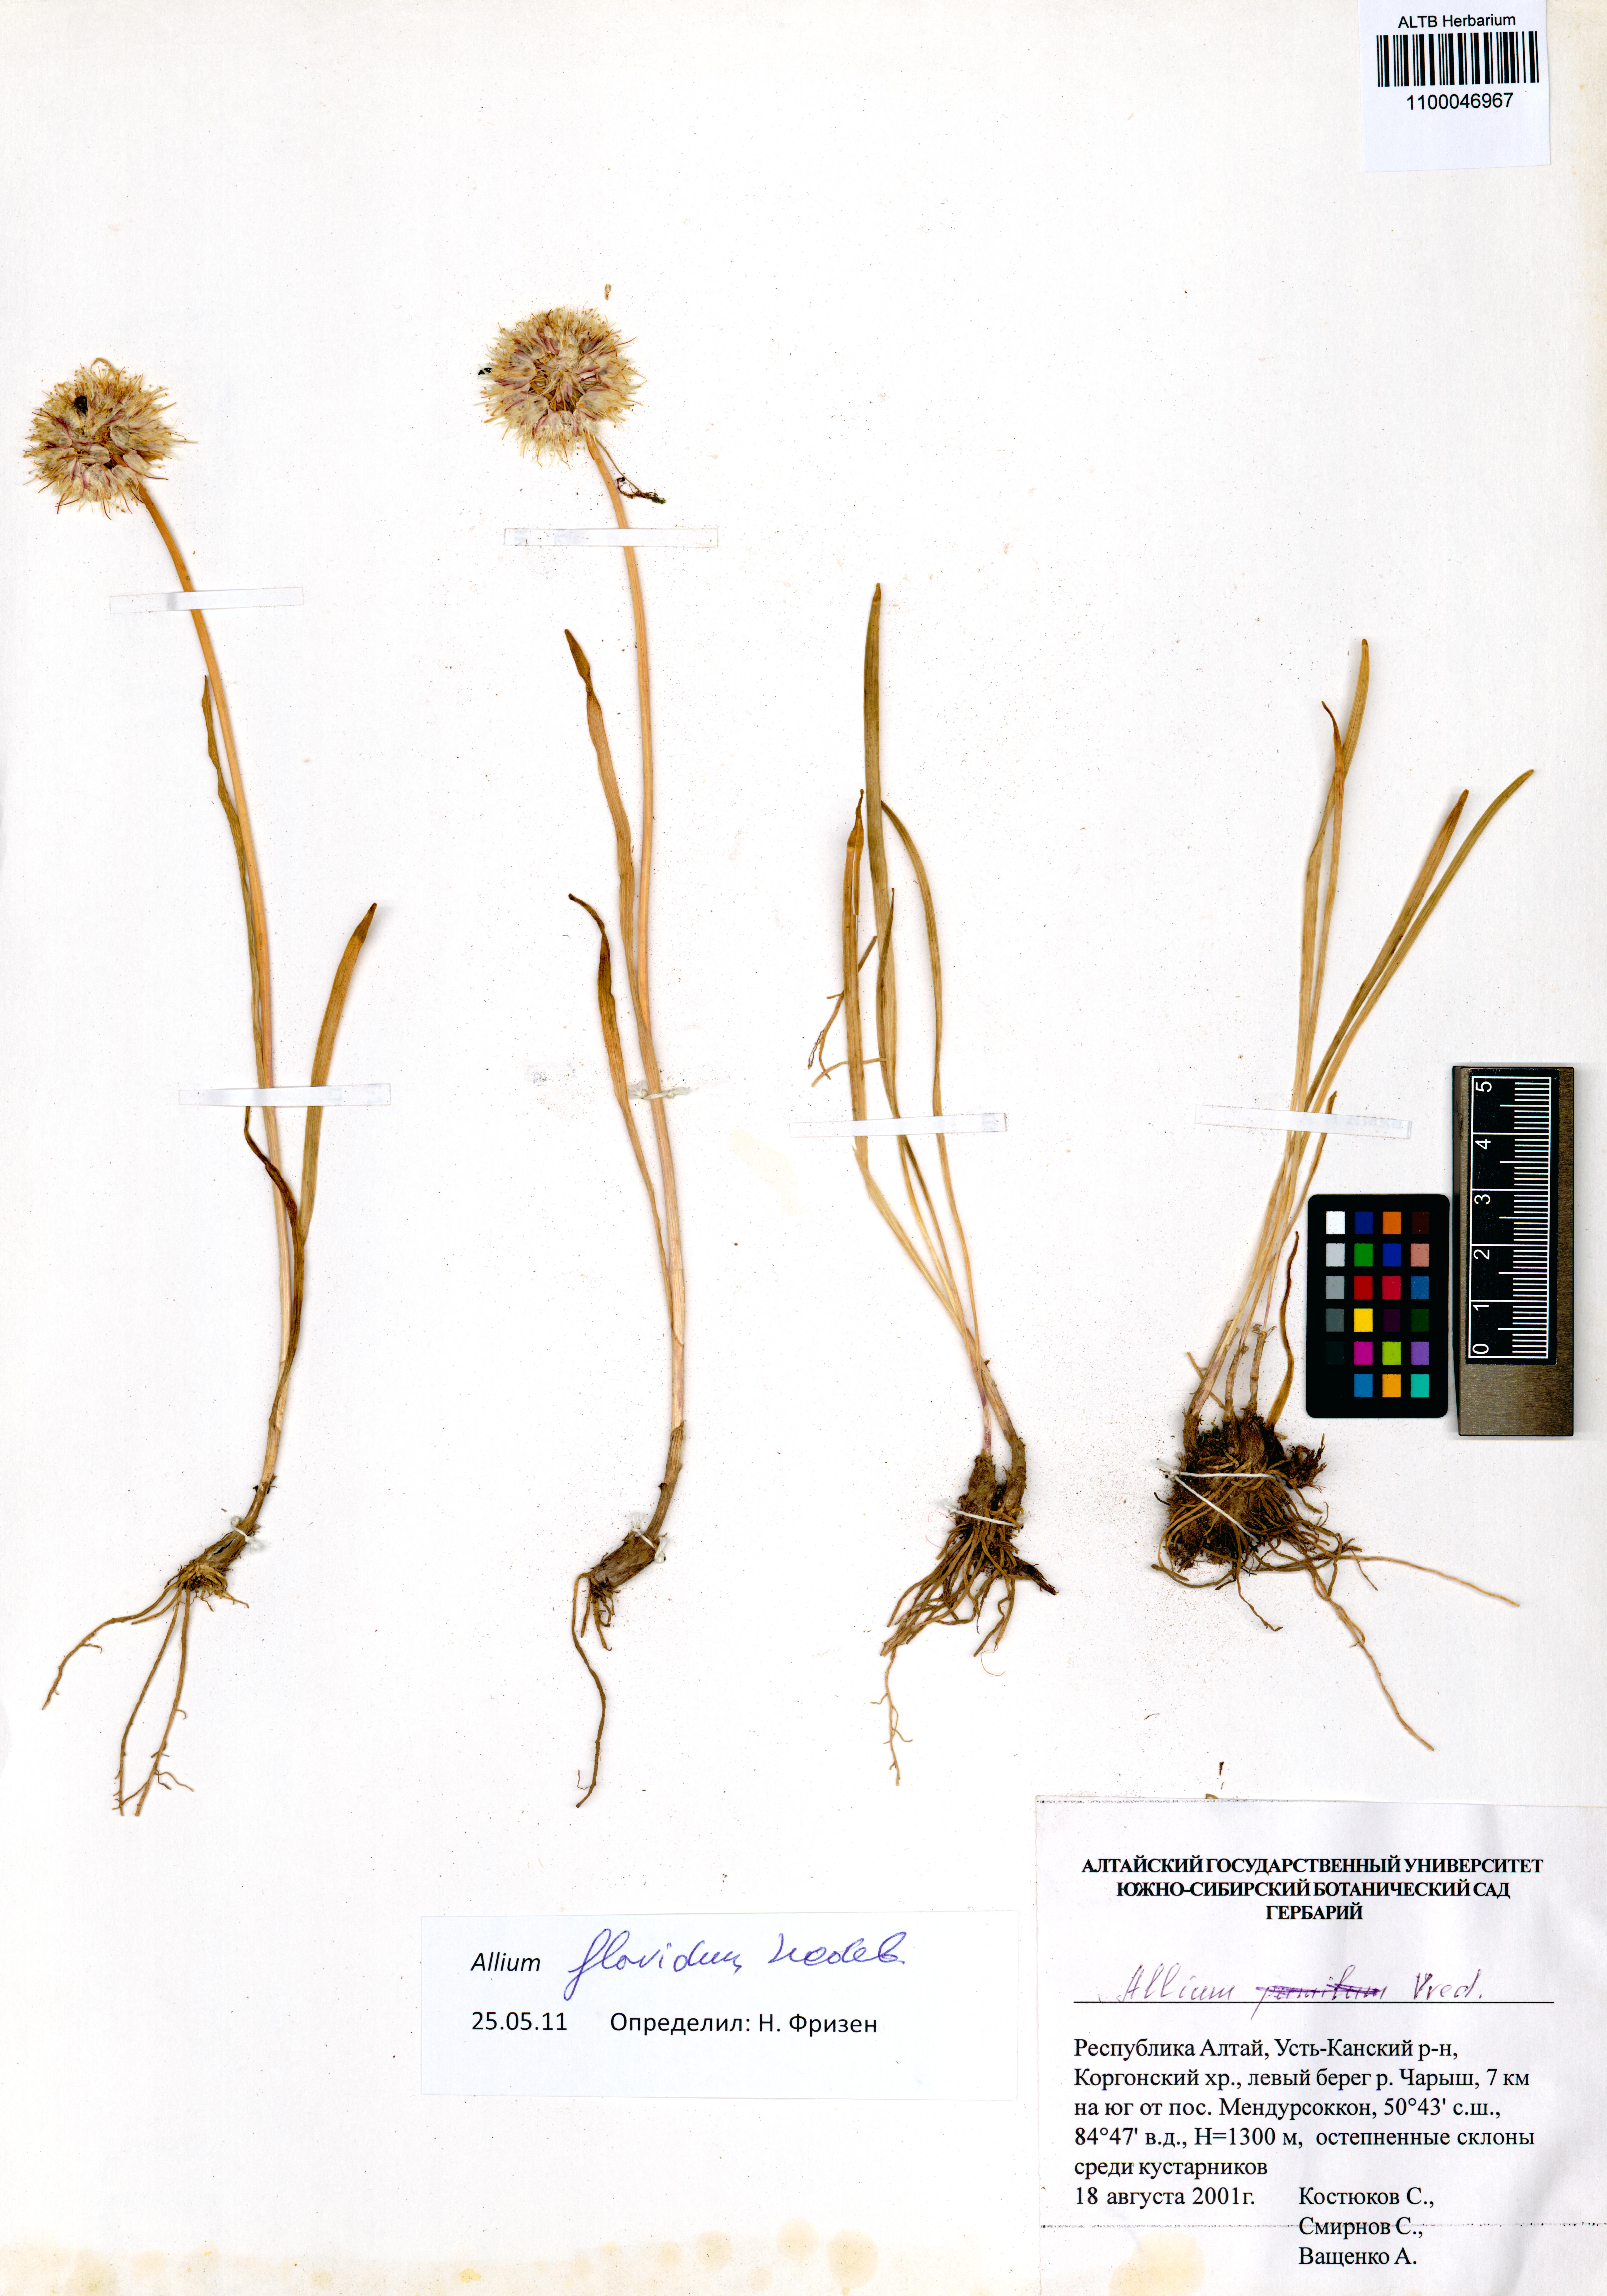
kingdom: Plantae
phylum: Tracheophyta
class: Liliopsida
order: Asparagales
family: Amaryllidaceae
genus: Allium
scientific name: Allium flavidum
